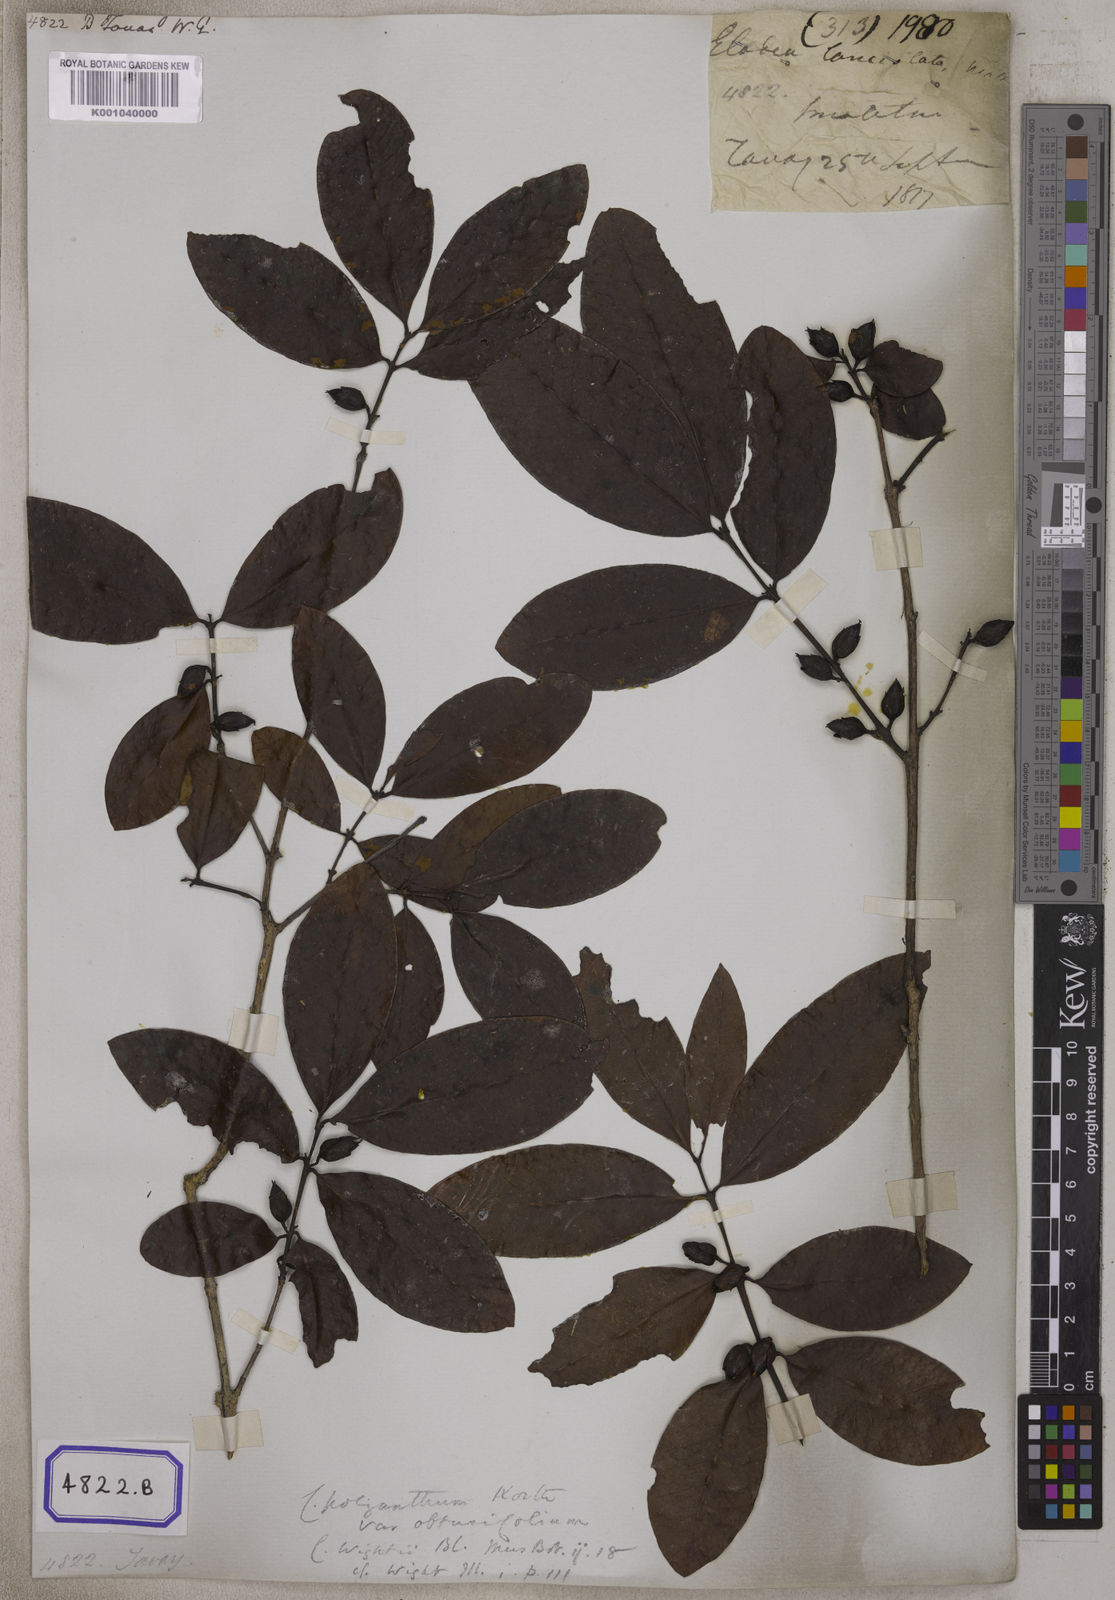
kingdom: Plantae
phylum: Tracheophyta
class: Magnoliopsida
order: Malpighiales
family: Hypericaceae
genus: Cratoxylum
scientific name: Cratoxylum cochinchinense
